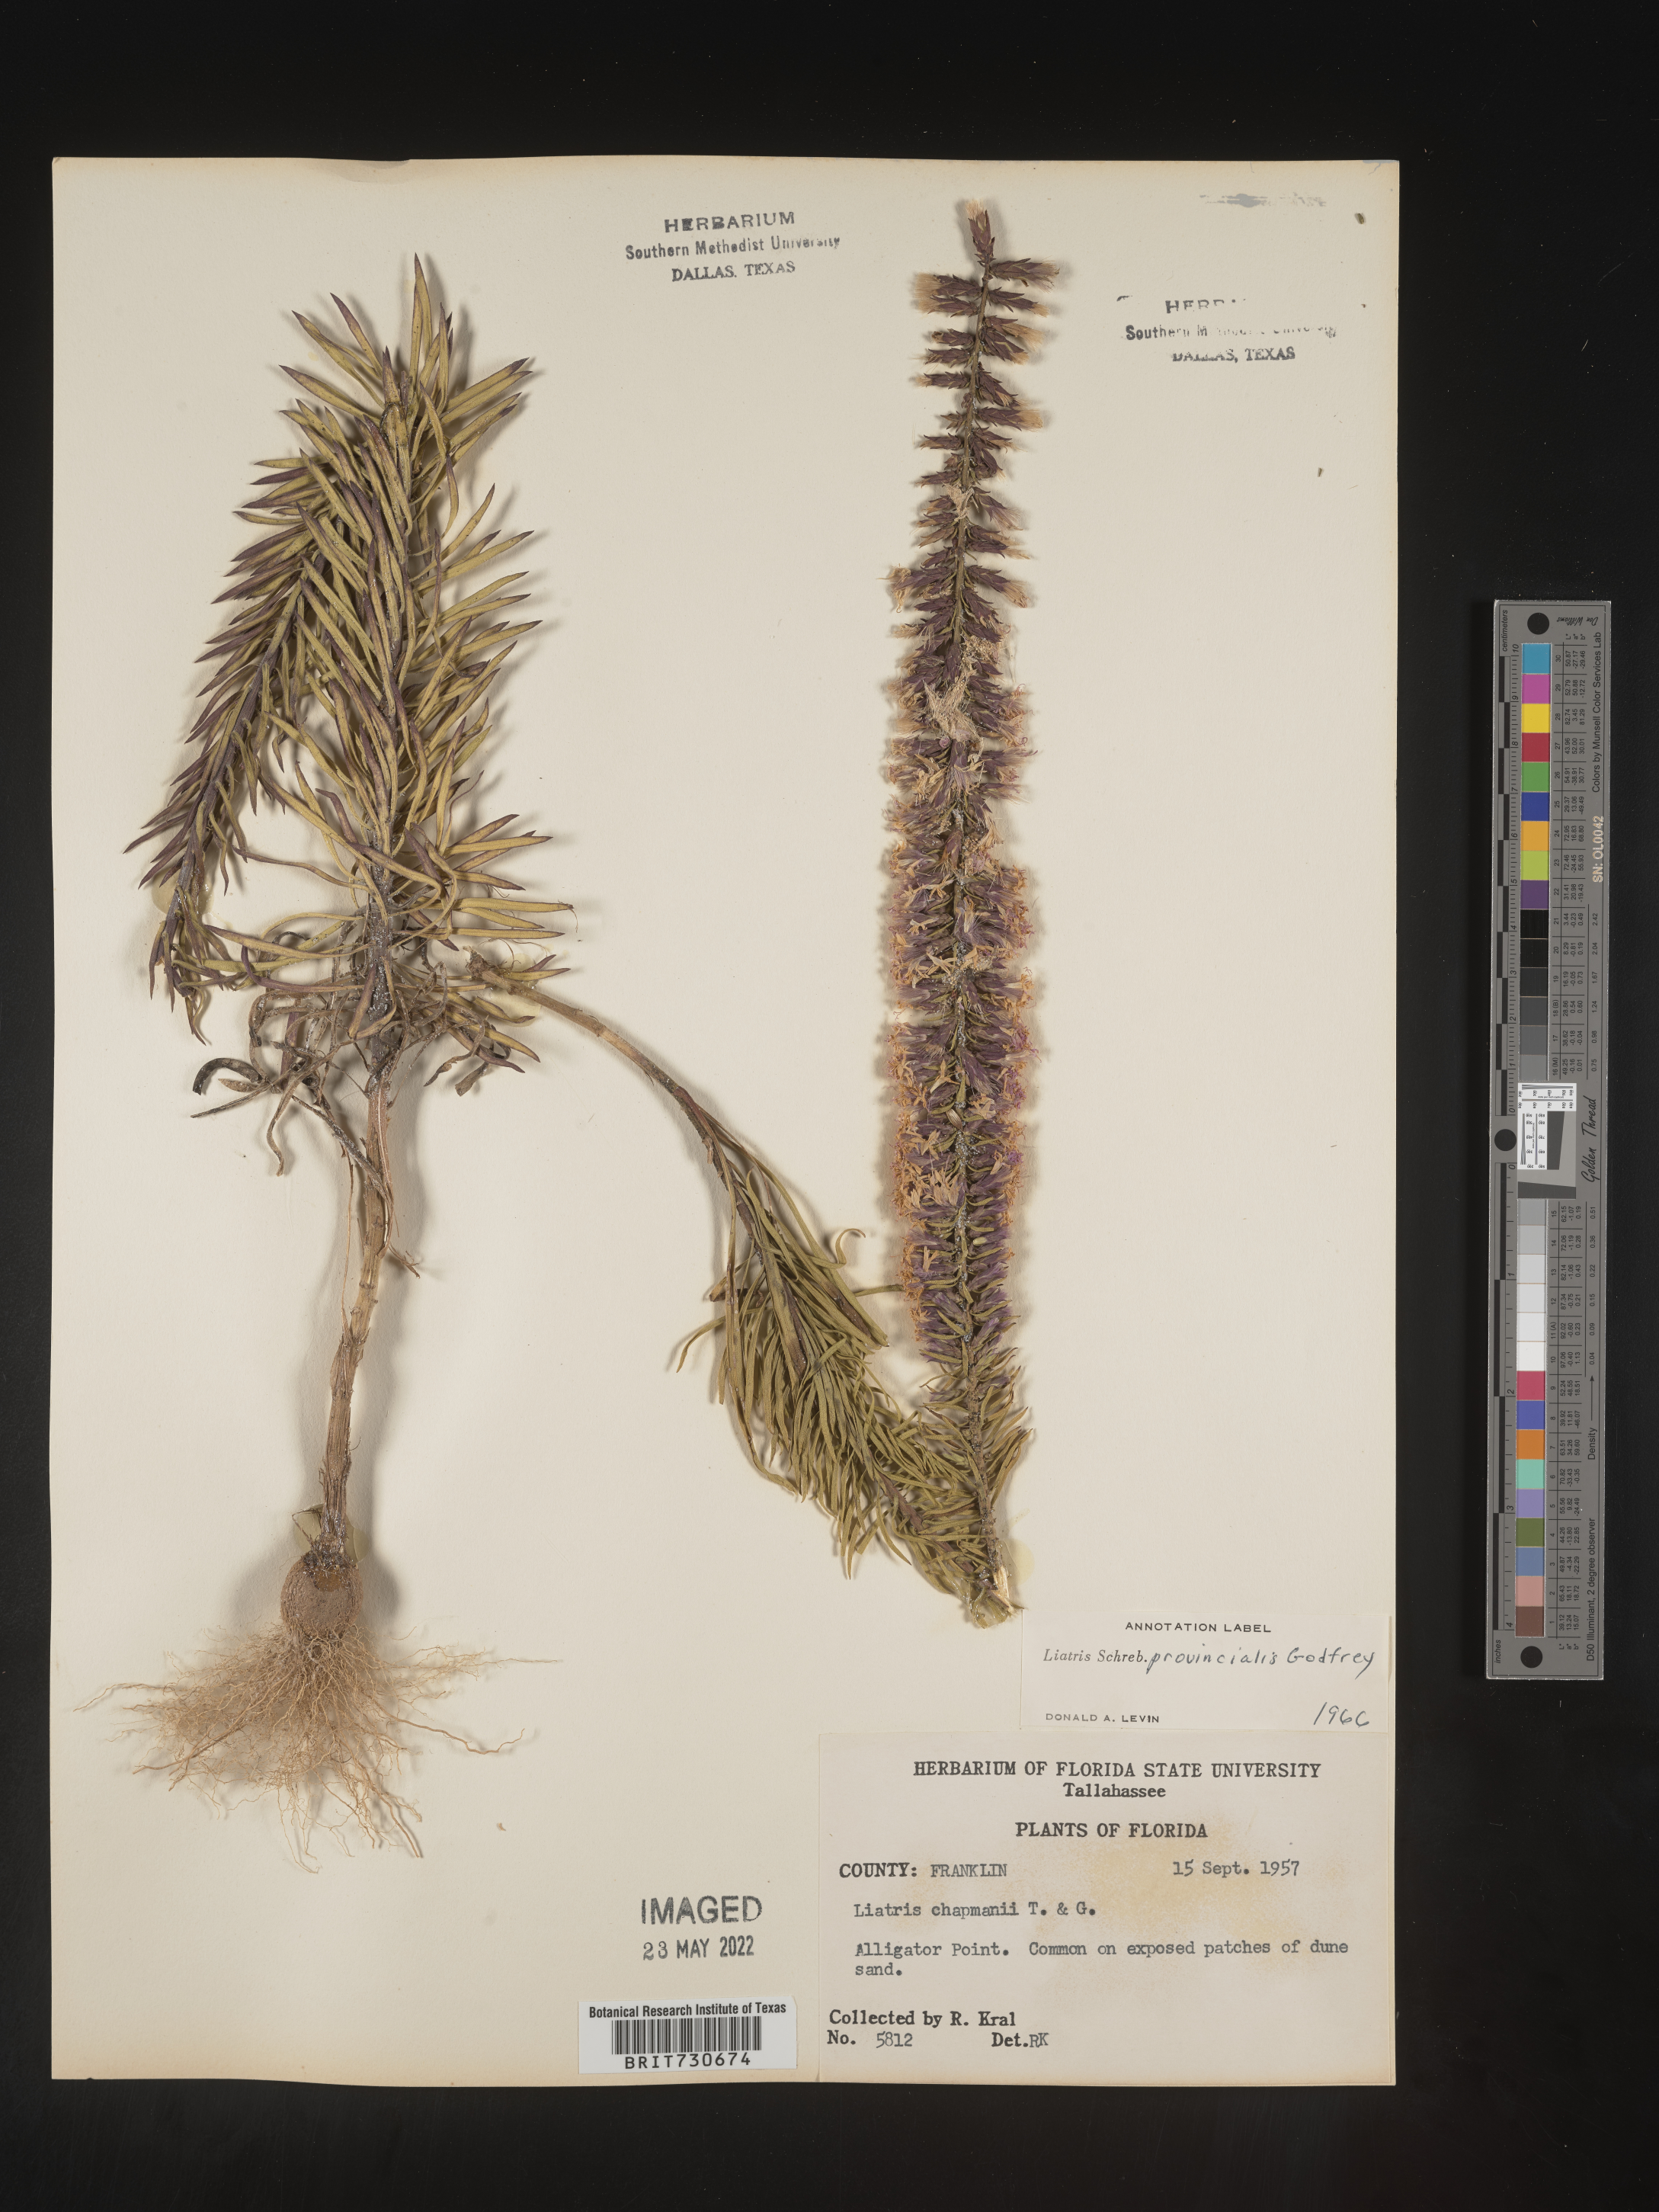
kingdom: Plantae
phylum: Tracheophyta
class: Magnoliopsida
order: Asterales
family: Asteraceae
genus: Liatris
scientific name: Liatris provincialis
